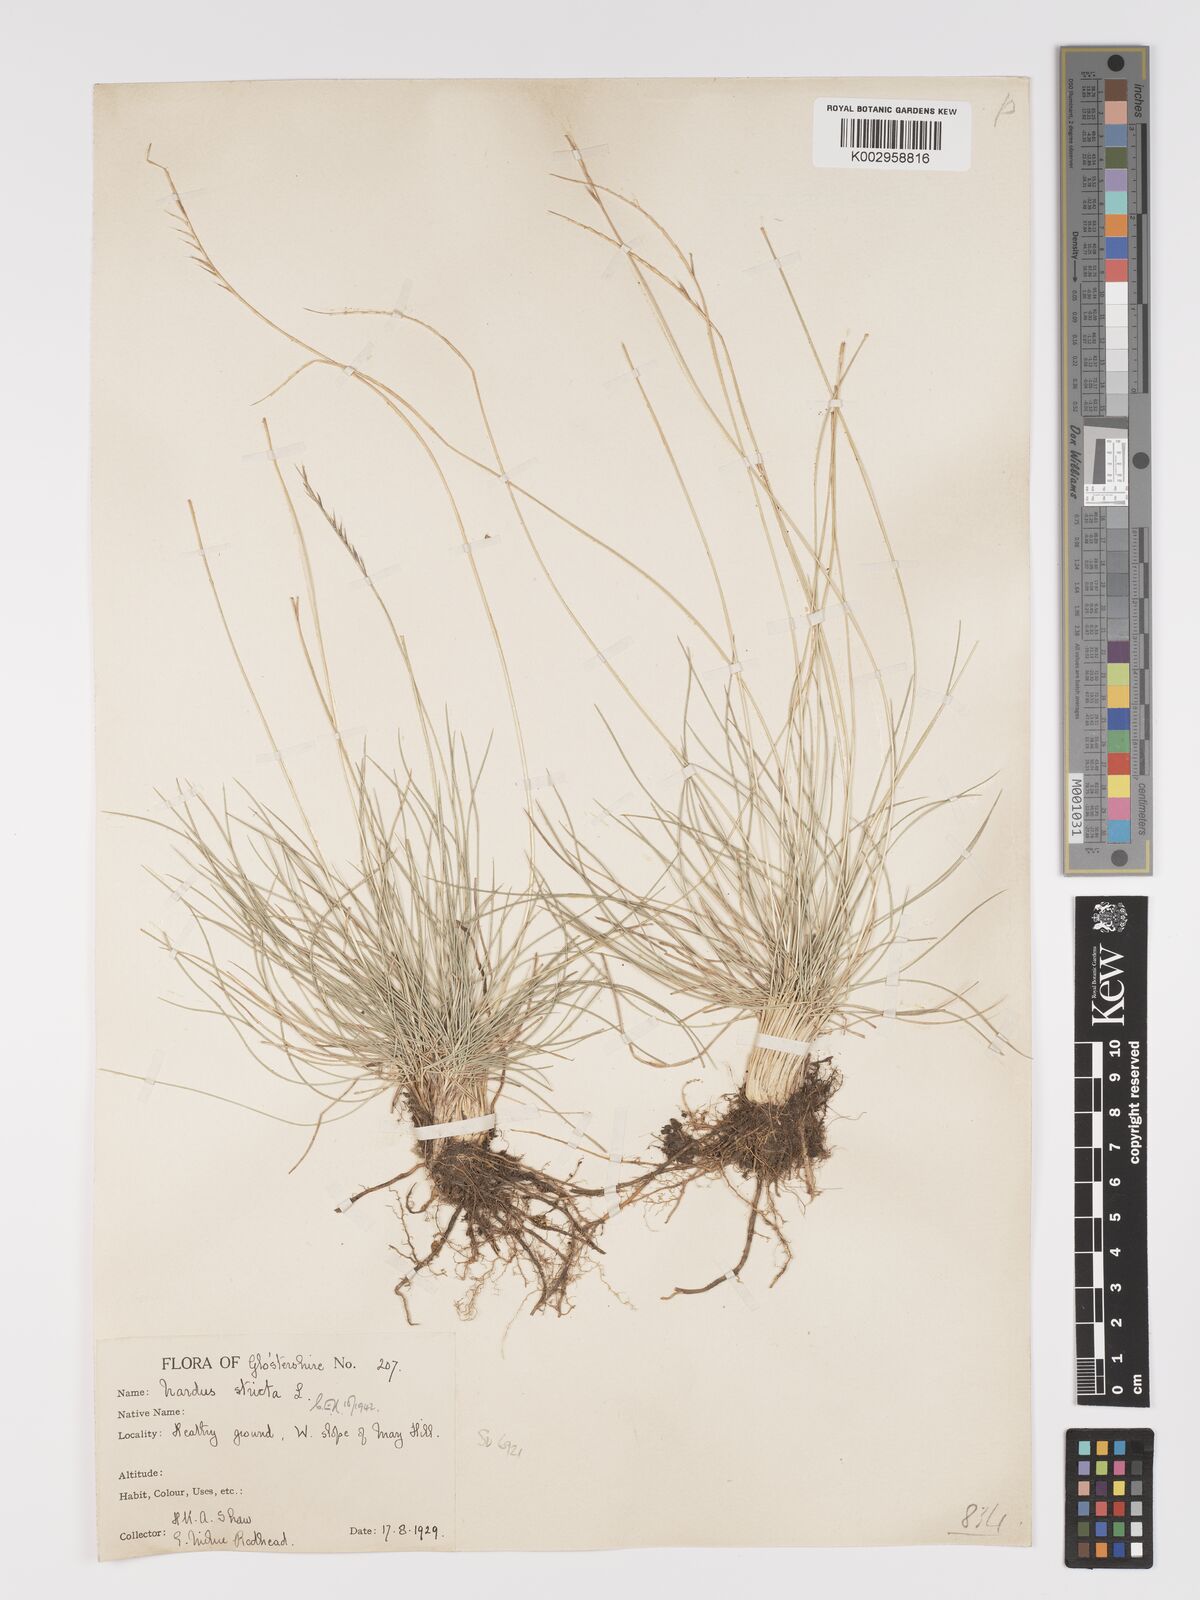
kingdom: Plantae
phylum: Tracheophyta
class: Liliopsida
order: Poales
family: Poaceae
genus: Nardus
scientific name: Nardus stricta
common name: Mat-grass
